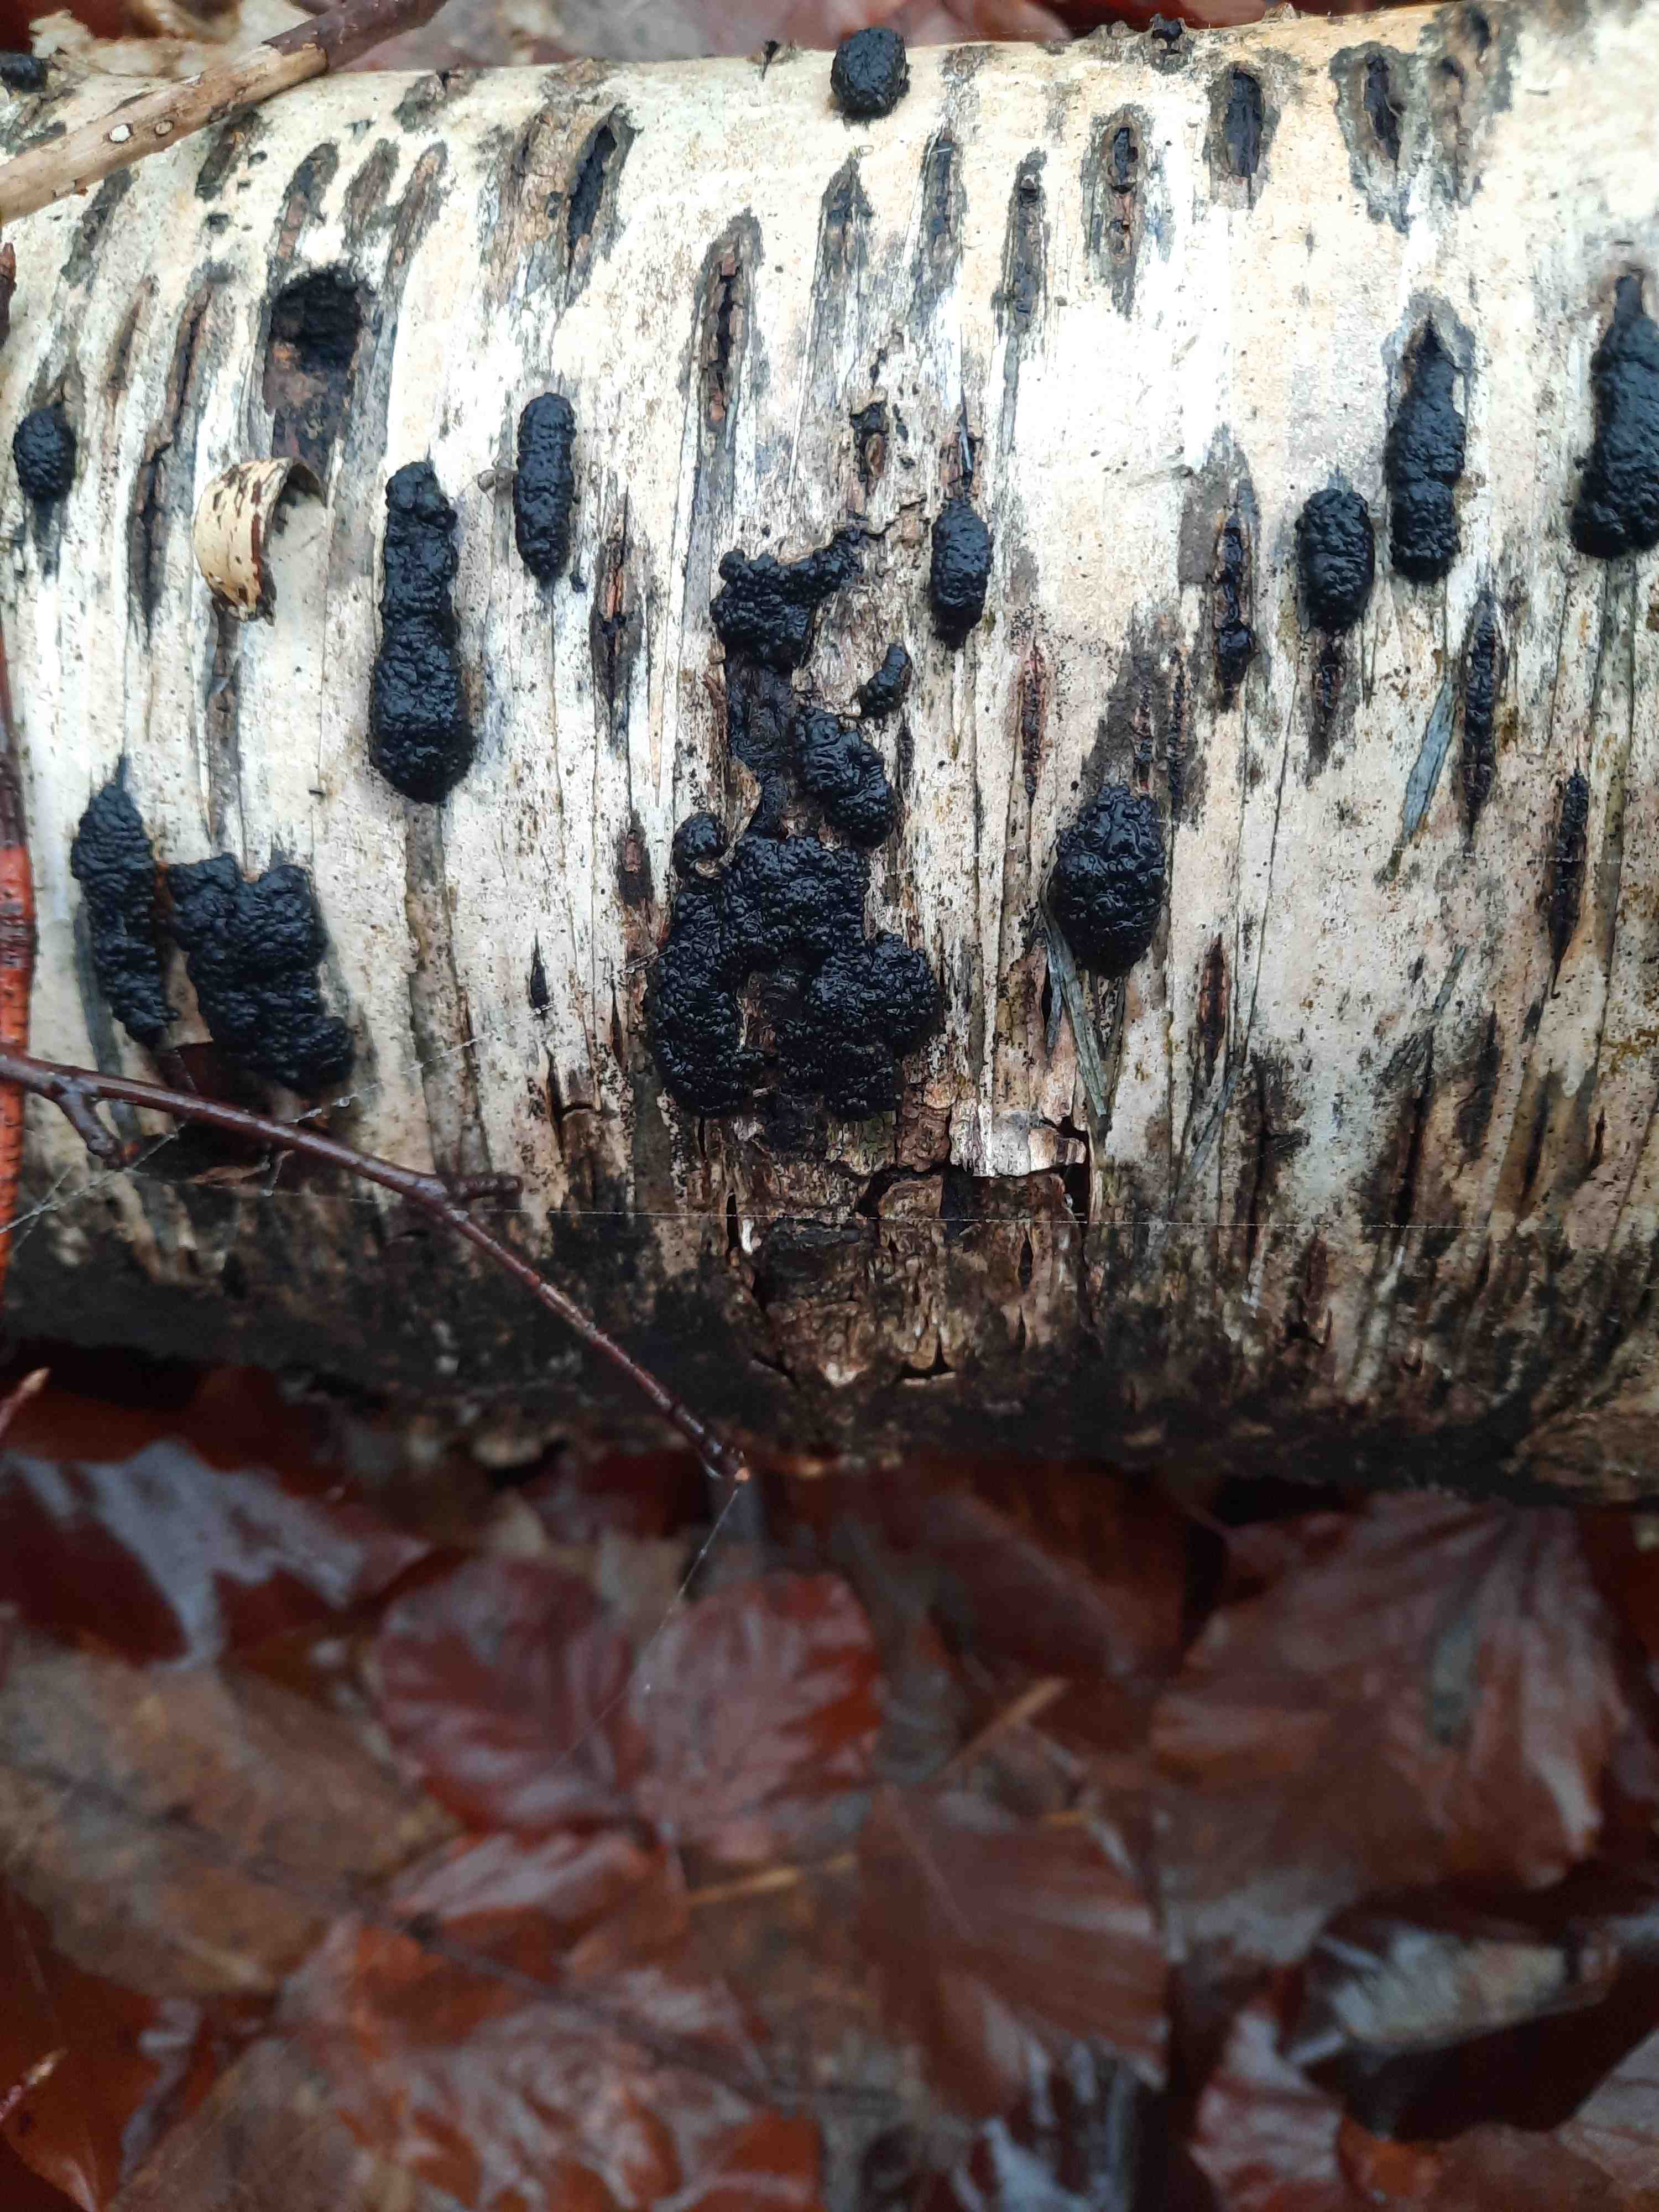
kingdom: Fungi
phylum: Ascomycota
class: Sordariomycetes
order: Xylariales
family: Hypoxylaceae
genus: Jackrogersella
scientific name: Jackrogersella multiformis
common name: foranderlig kulbær
